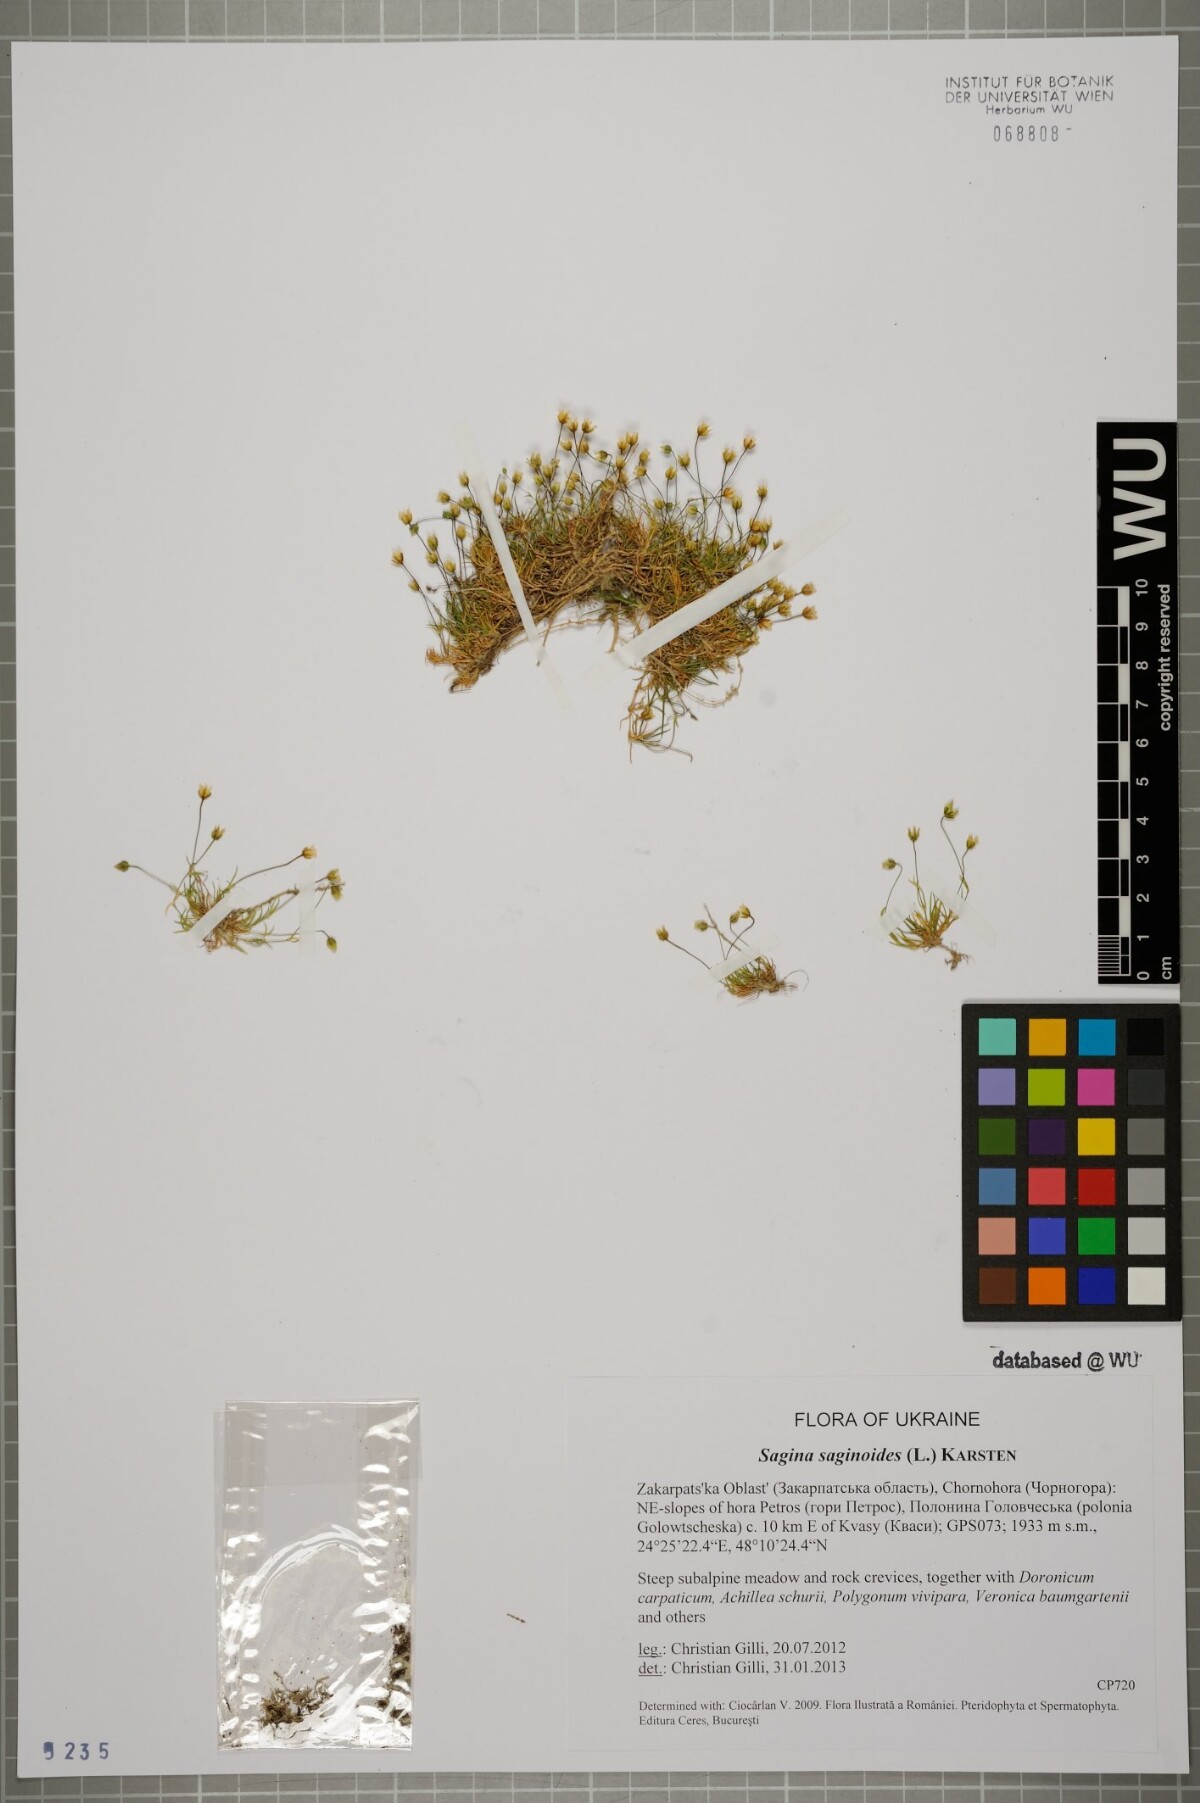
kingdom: Plantae
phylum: Tracheophyta
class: Magnoliopsida
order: Caryophyllales
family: Caryophyllaceae
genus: Sagina
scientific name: Sagina saginoides
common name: Alpine pearlwort
